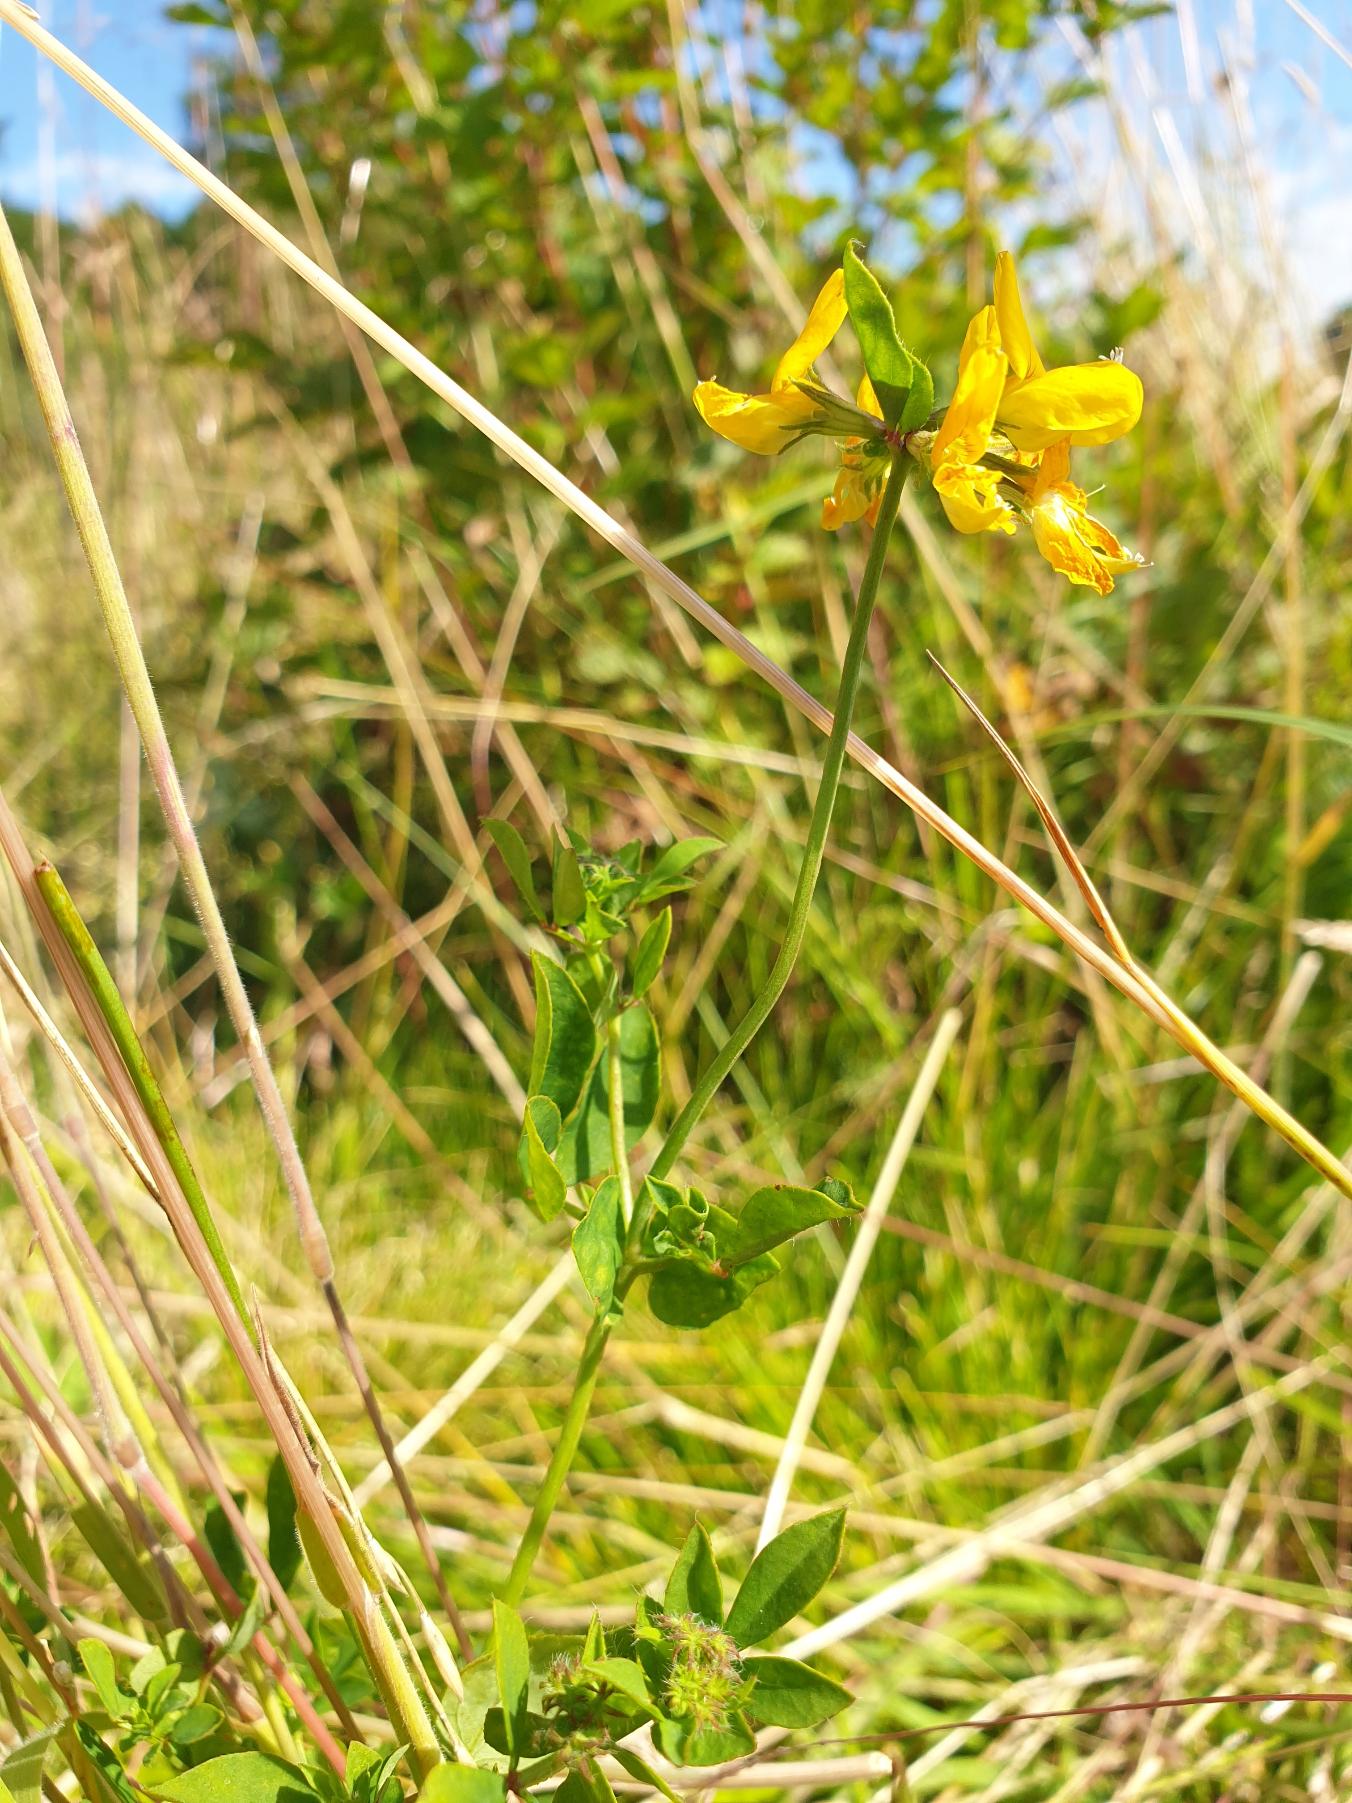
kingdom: Plantae
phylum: Tracheophyta
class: Magnoliopsida
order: Fabales
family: Fabaceae
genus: Lotus
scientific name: Lotus corniculatus
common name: Almindelig kællingetand
